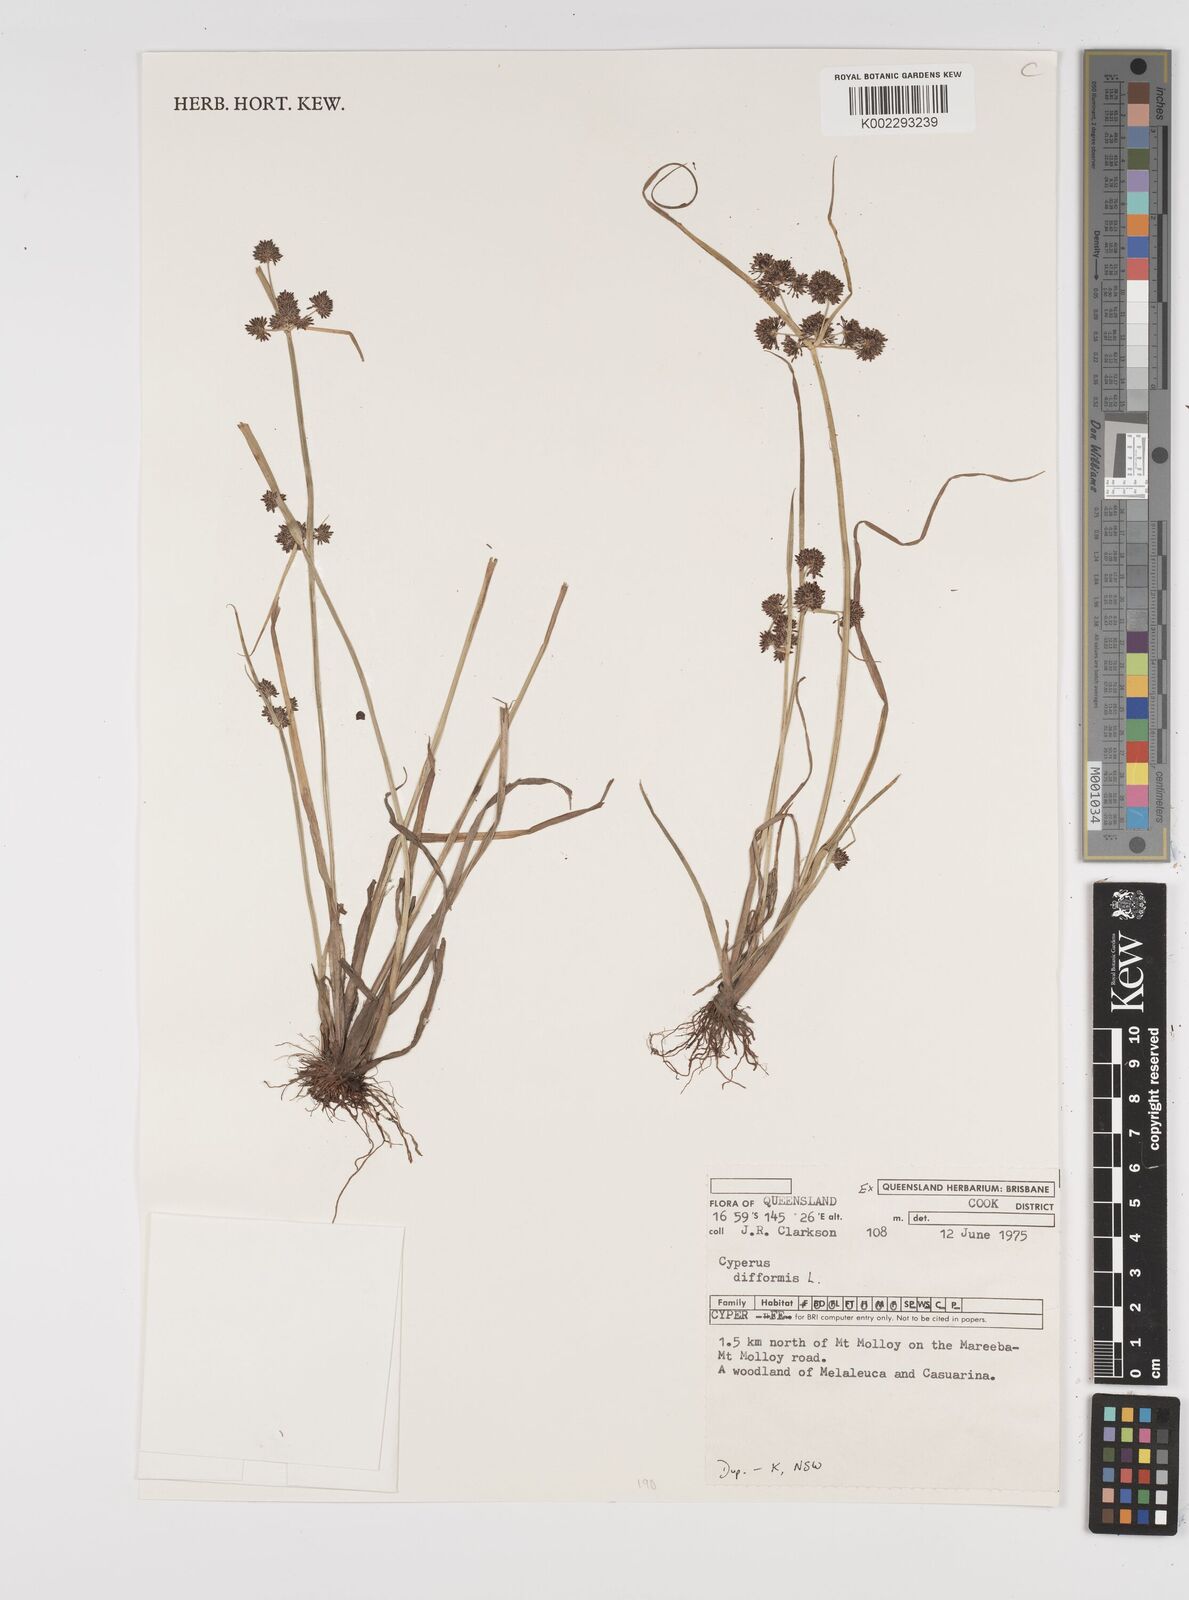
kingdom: Plantae
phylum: Tracheophyta
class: Liliopsida
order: Poales
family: Cyperaceae
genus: Cyperus
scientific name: Cyperus difformis
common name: Variable flatsedge
